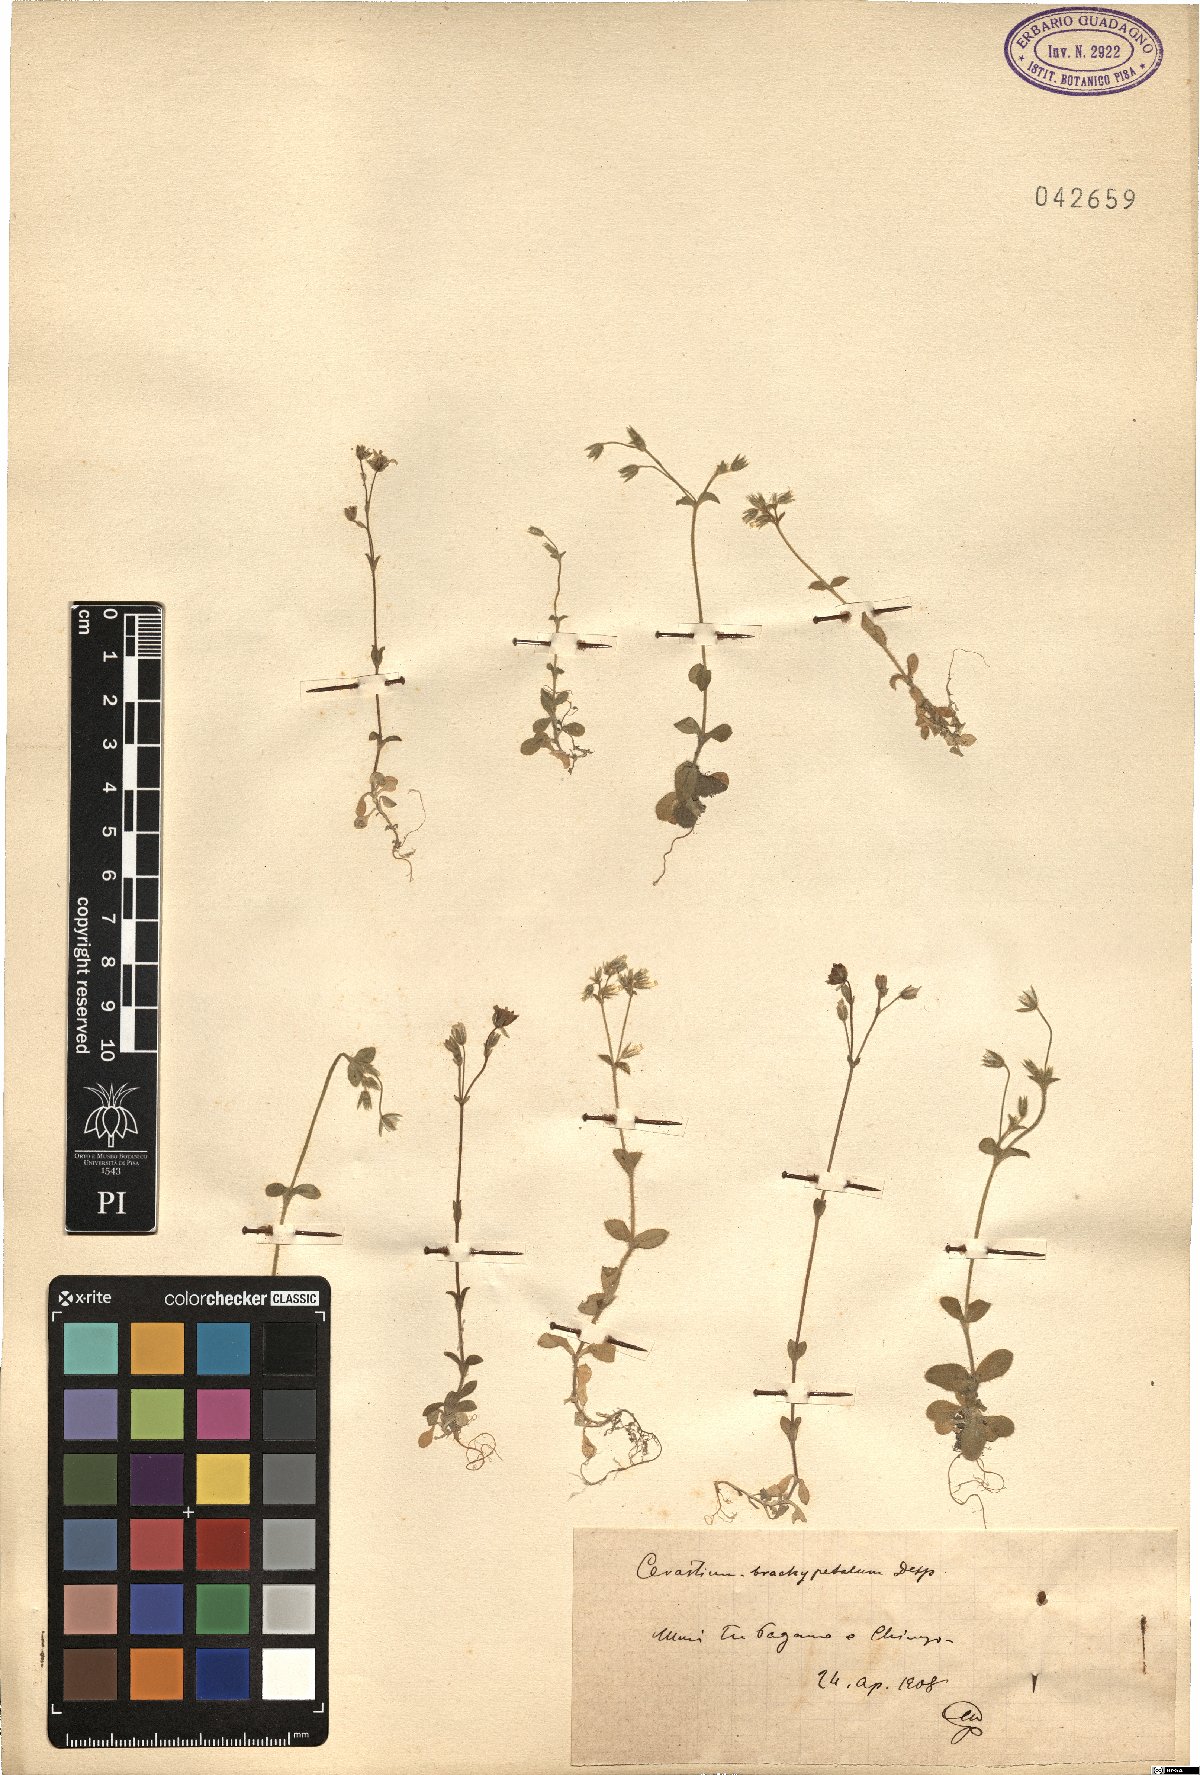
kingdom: Plantae
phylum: Tracheophyta
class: Magnoliopsida
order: Caryophyllales
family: Caryophyllaceae
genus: Cerastium
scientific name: Cerastium brachypetalum
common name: Grey mouse-ear
